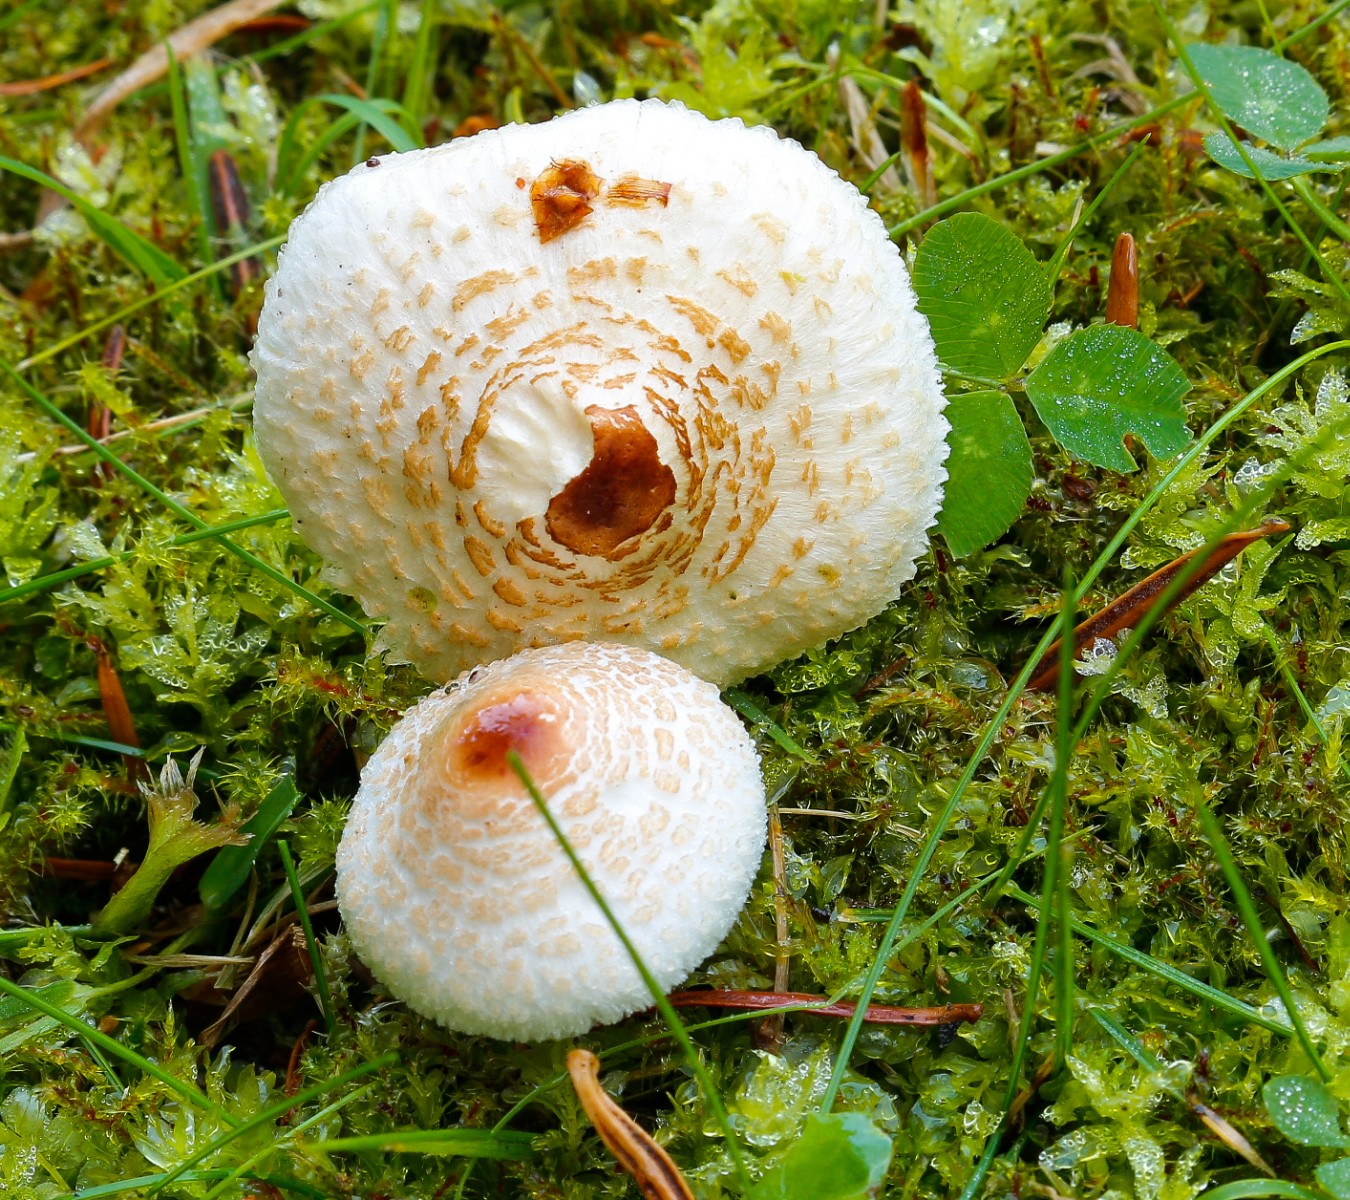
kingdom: Fungi
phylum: Basidiomycota
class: Agaricomycetes
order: Agaricales
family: Agaricaceae
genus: Lepiota
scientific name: Lepiota cristata
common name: stinkende parasolhat
